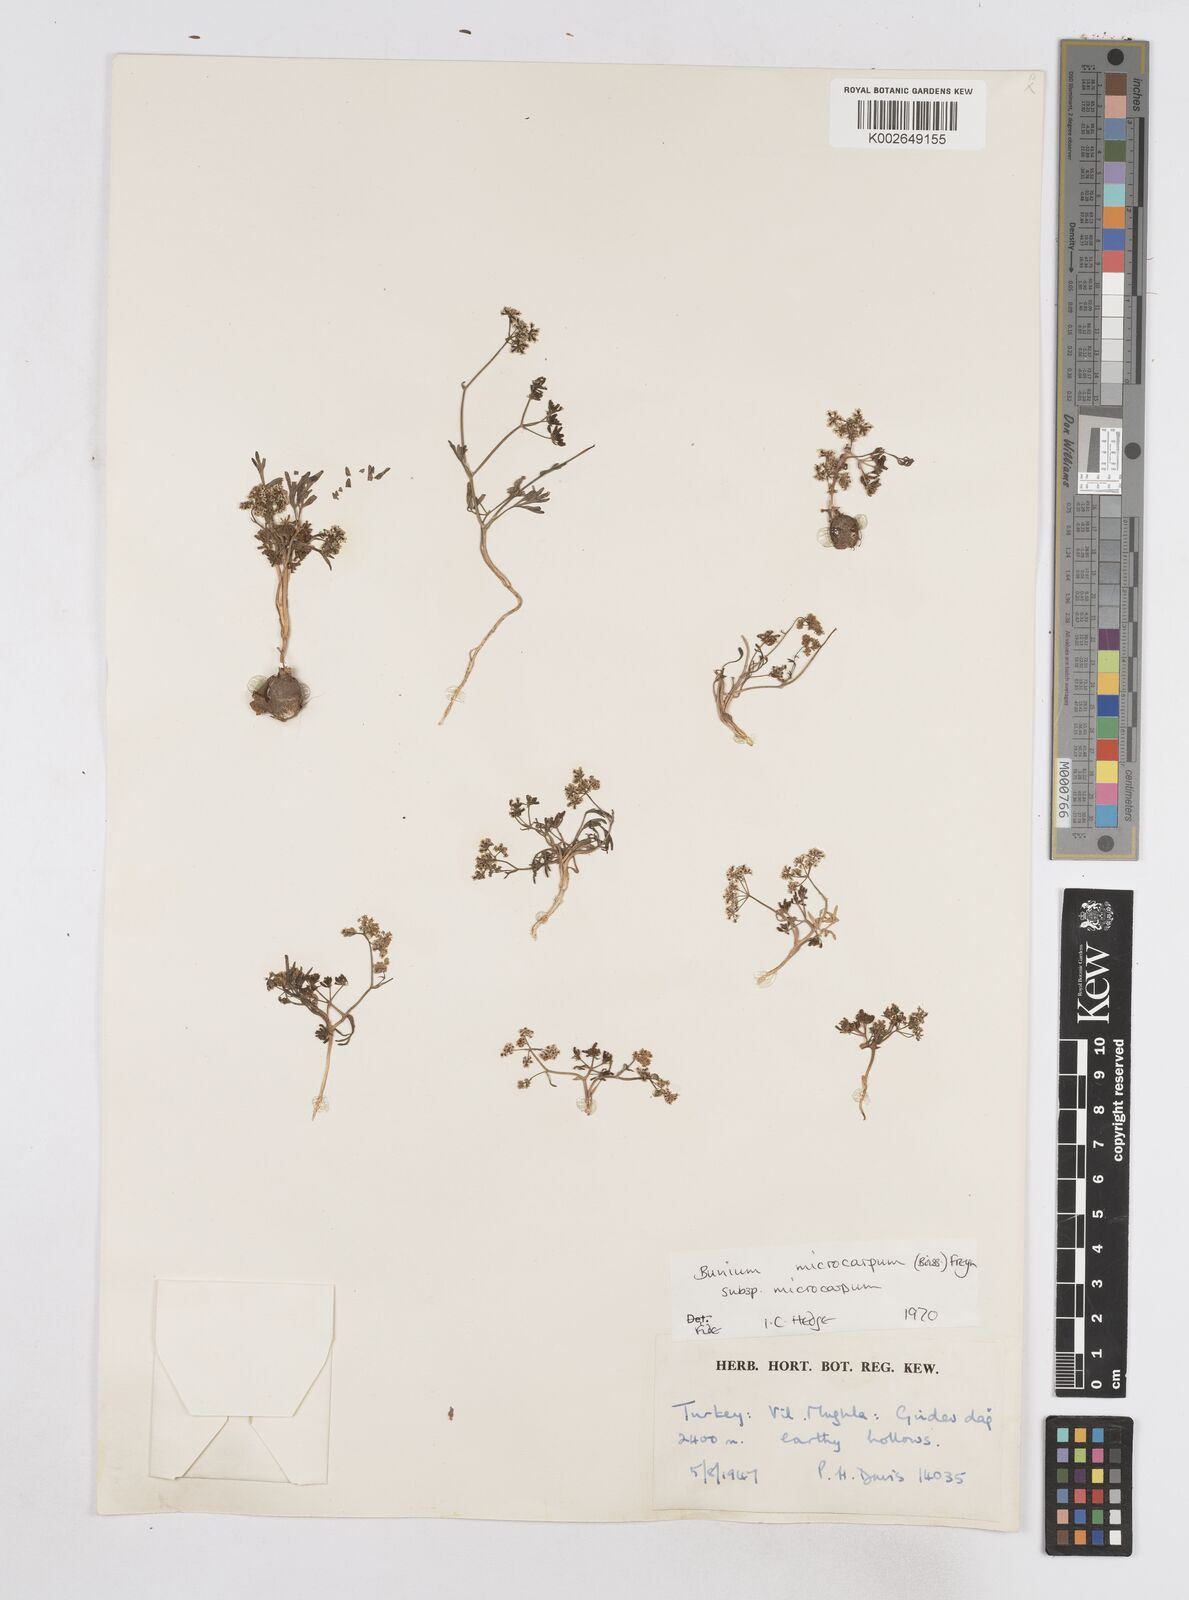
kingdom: Plantae
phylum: Tracheophyta
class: Magnoliopsida
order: Apiales
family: Apiaceae
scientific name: Apiaceae
